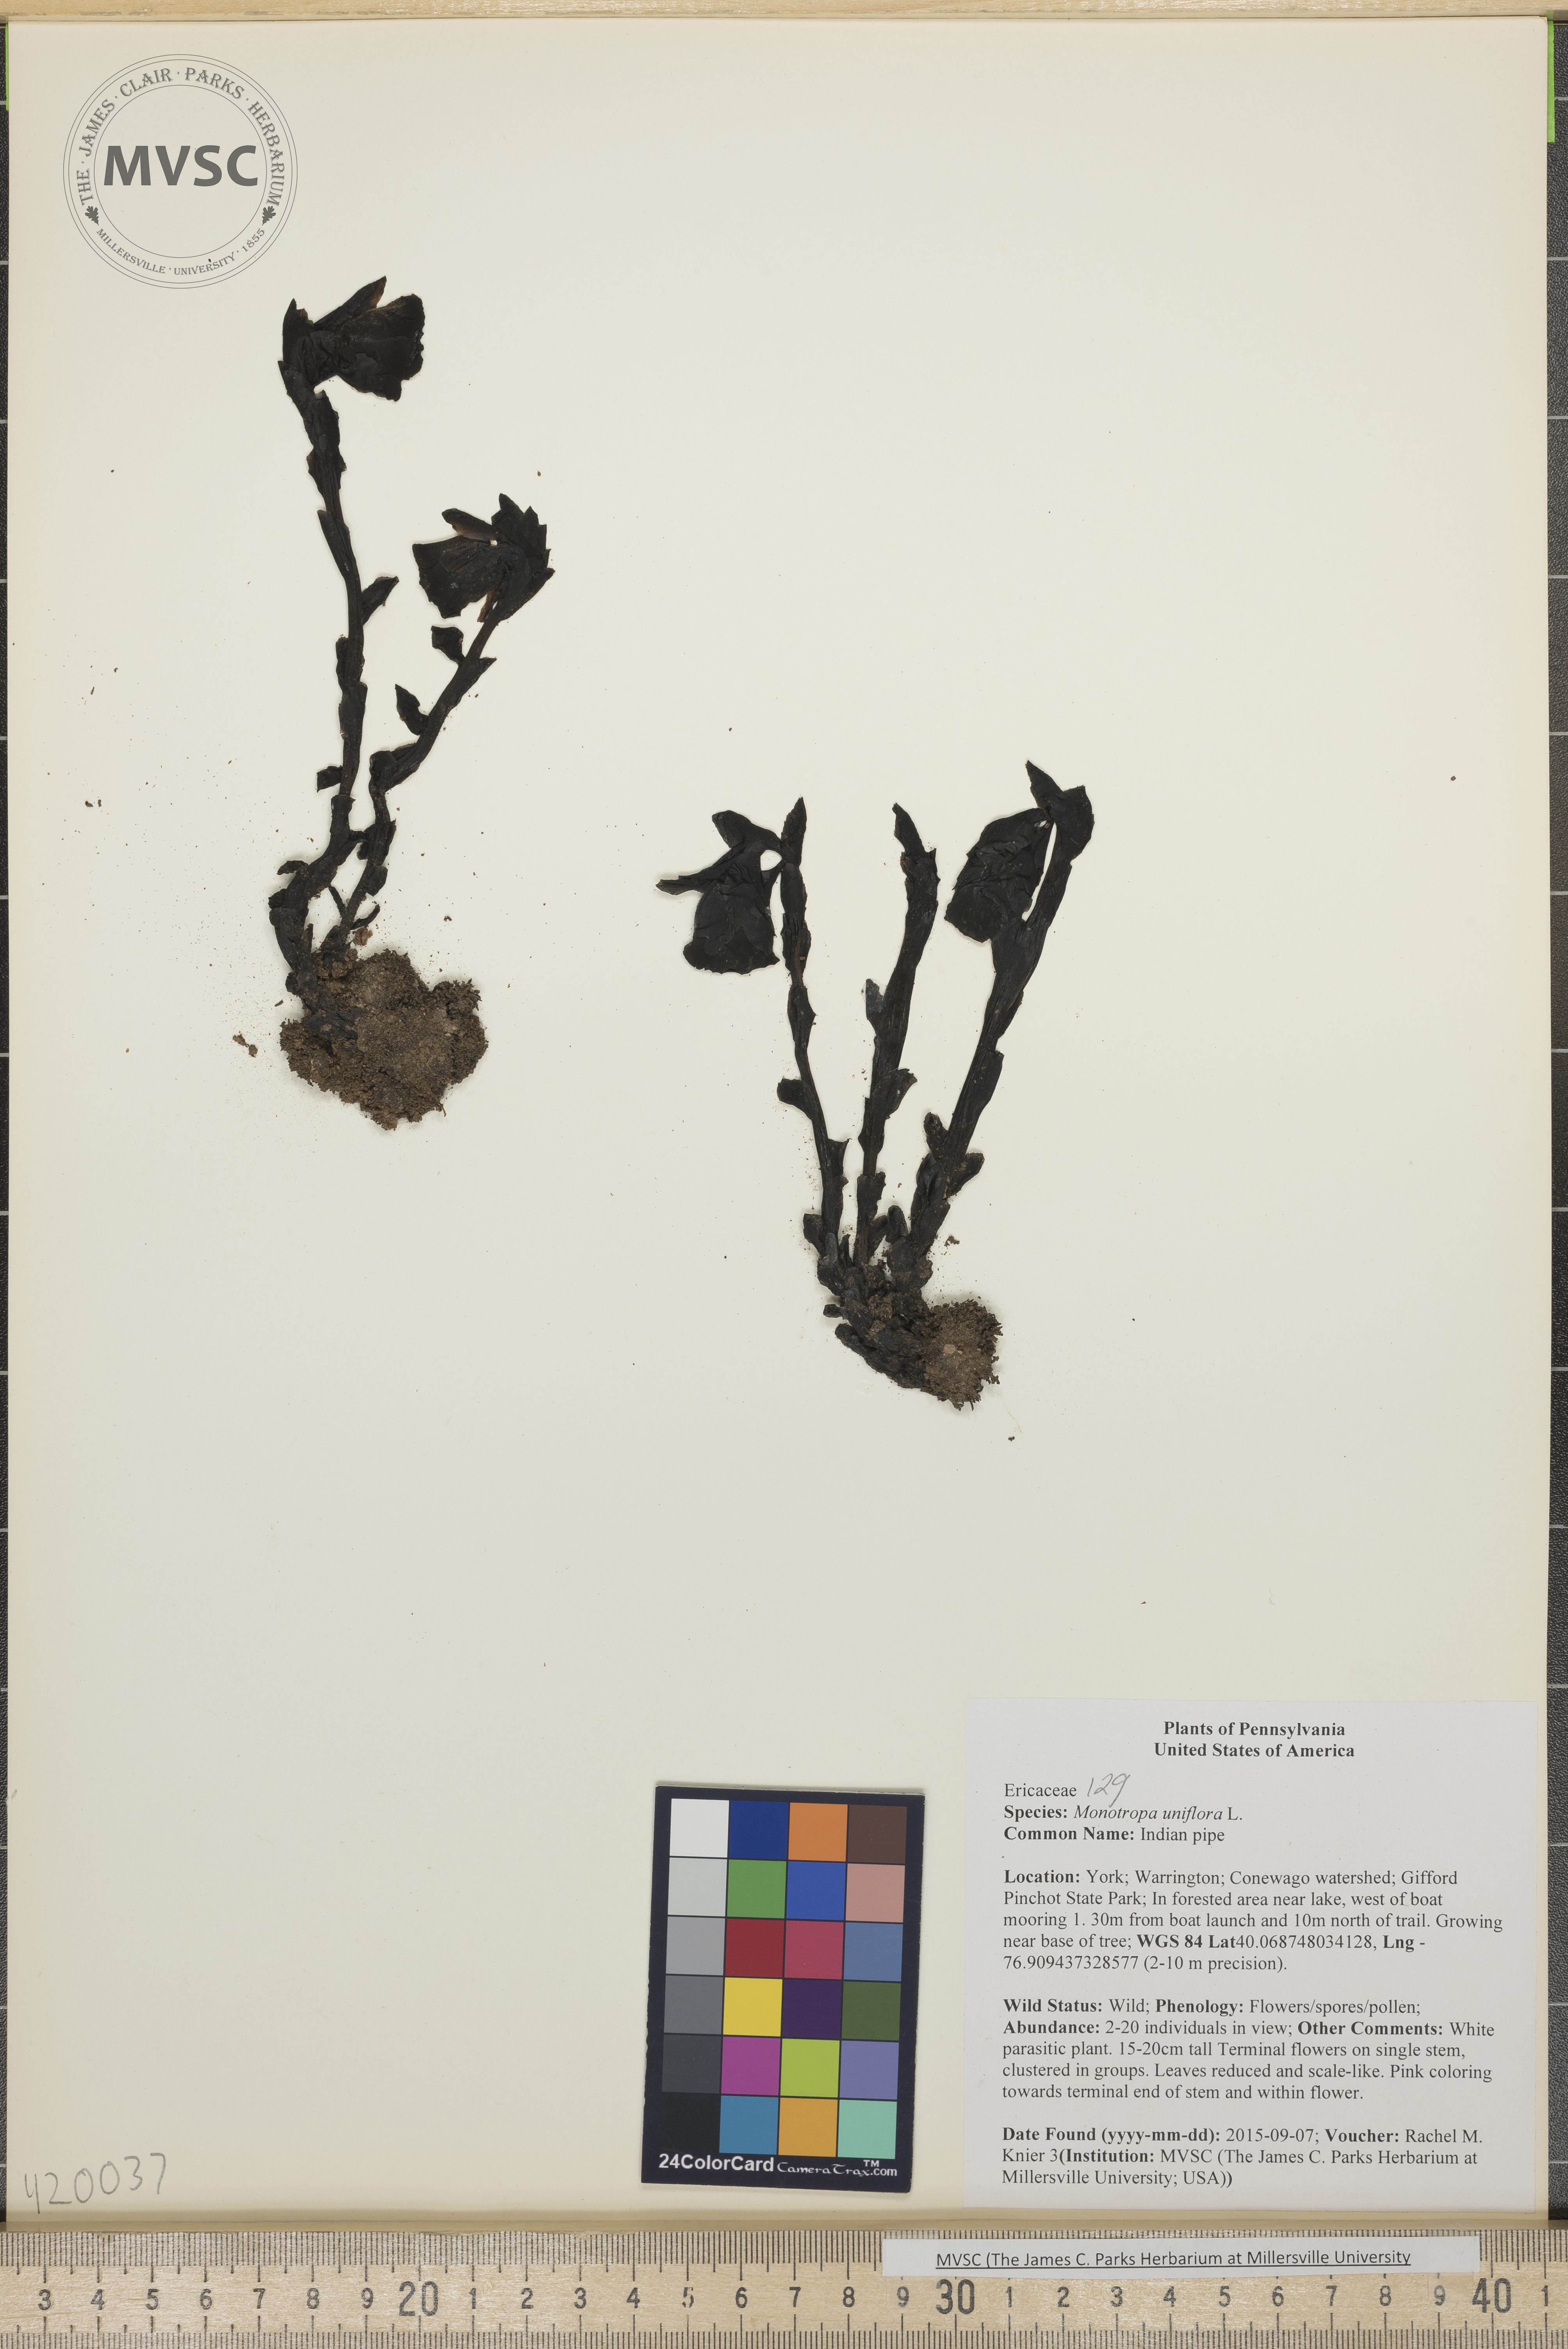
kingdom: Plantae
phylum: Tracheophyta
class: Magnoliopsida
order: Ericales
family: Ericaceae
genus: Monotropa
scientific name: Monotropa uniflora
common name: Indian pipe
